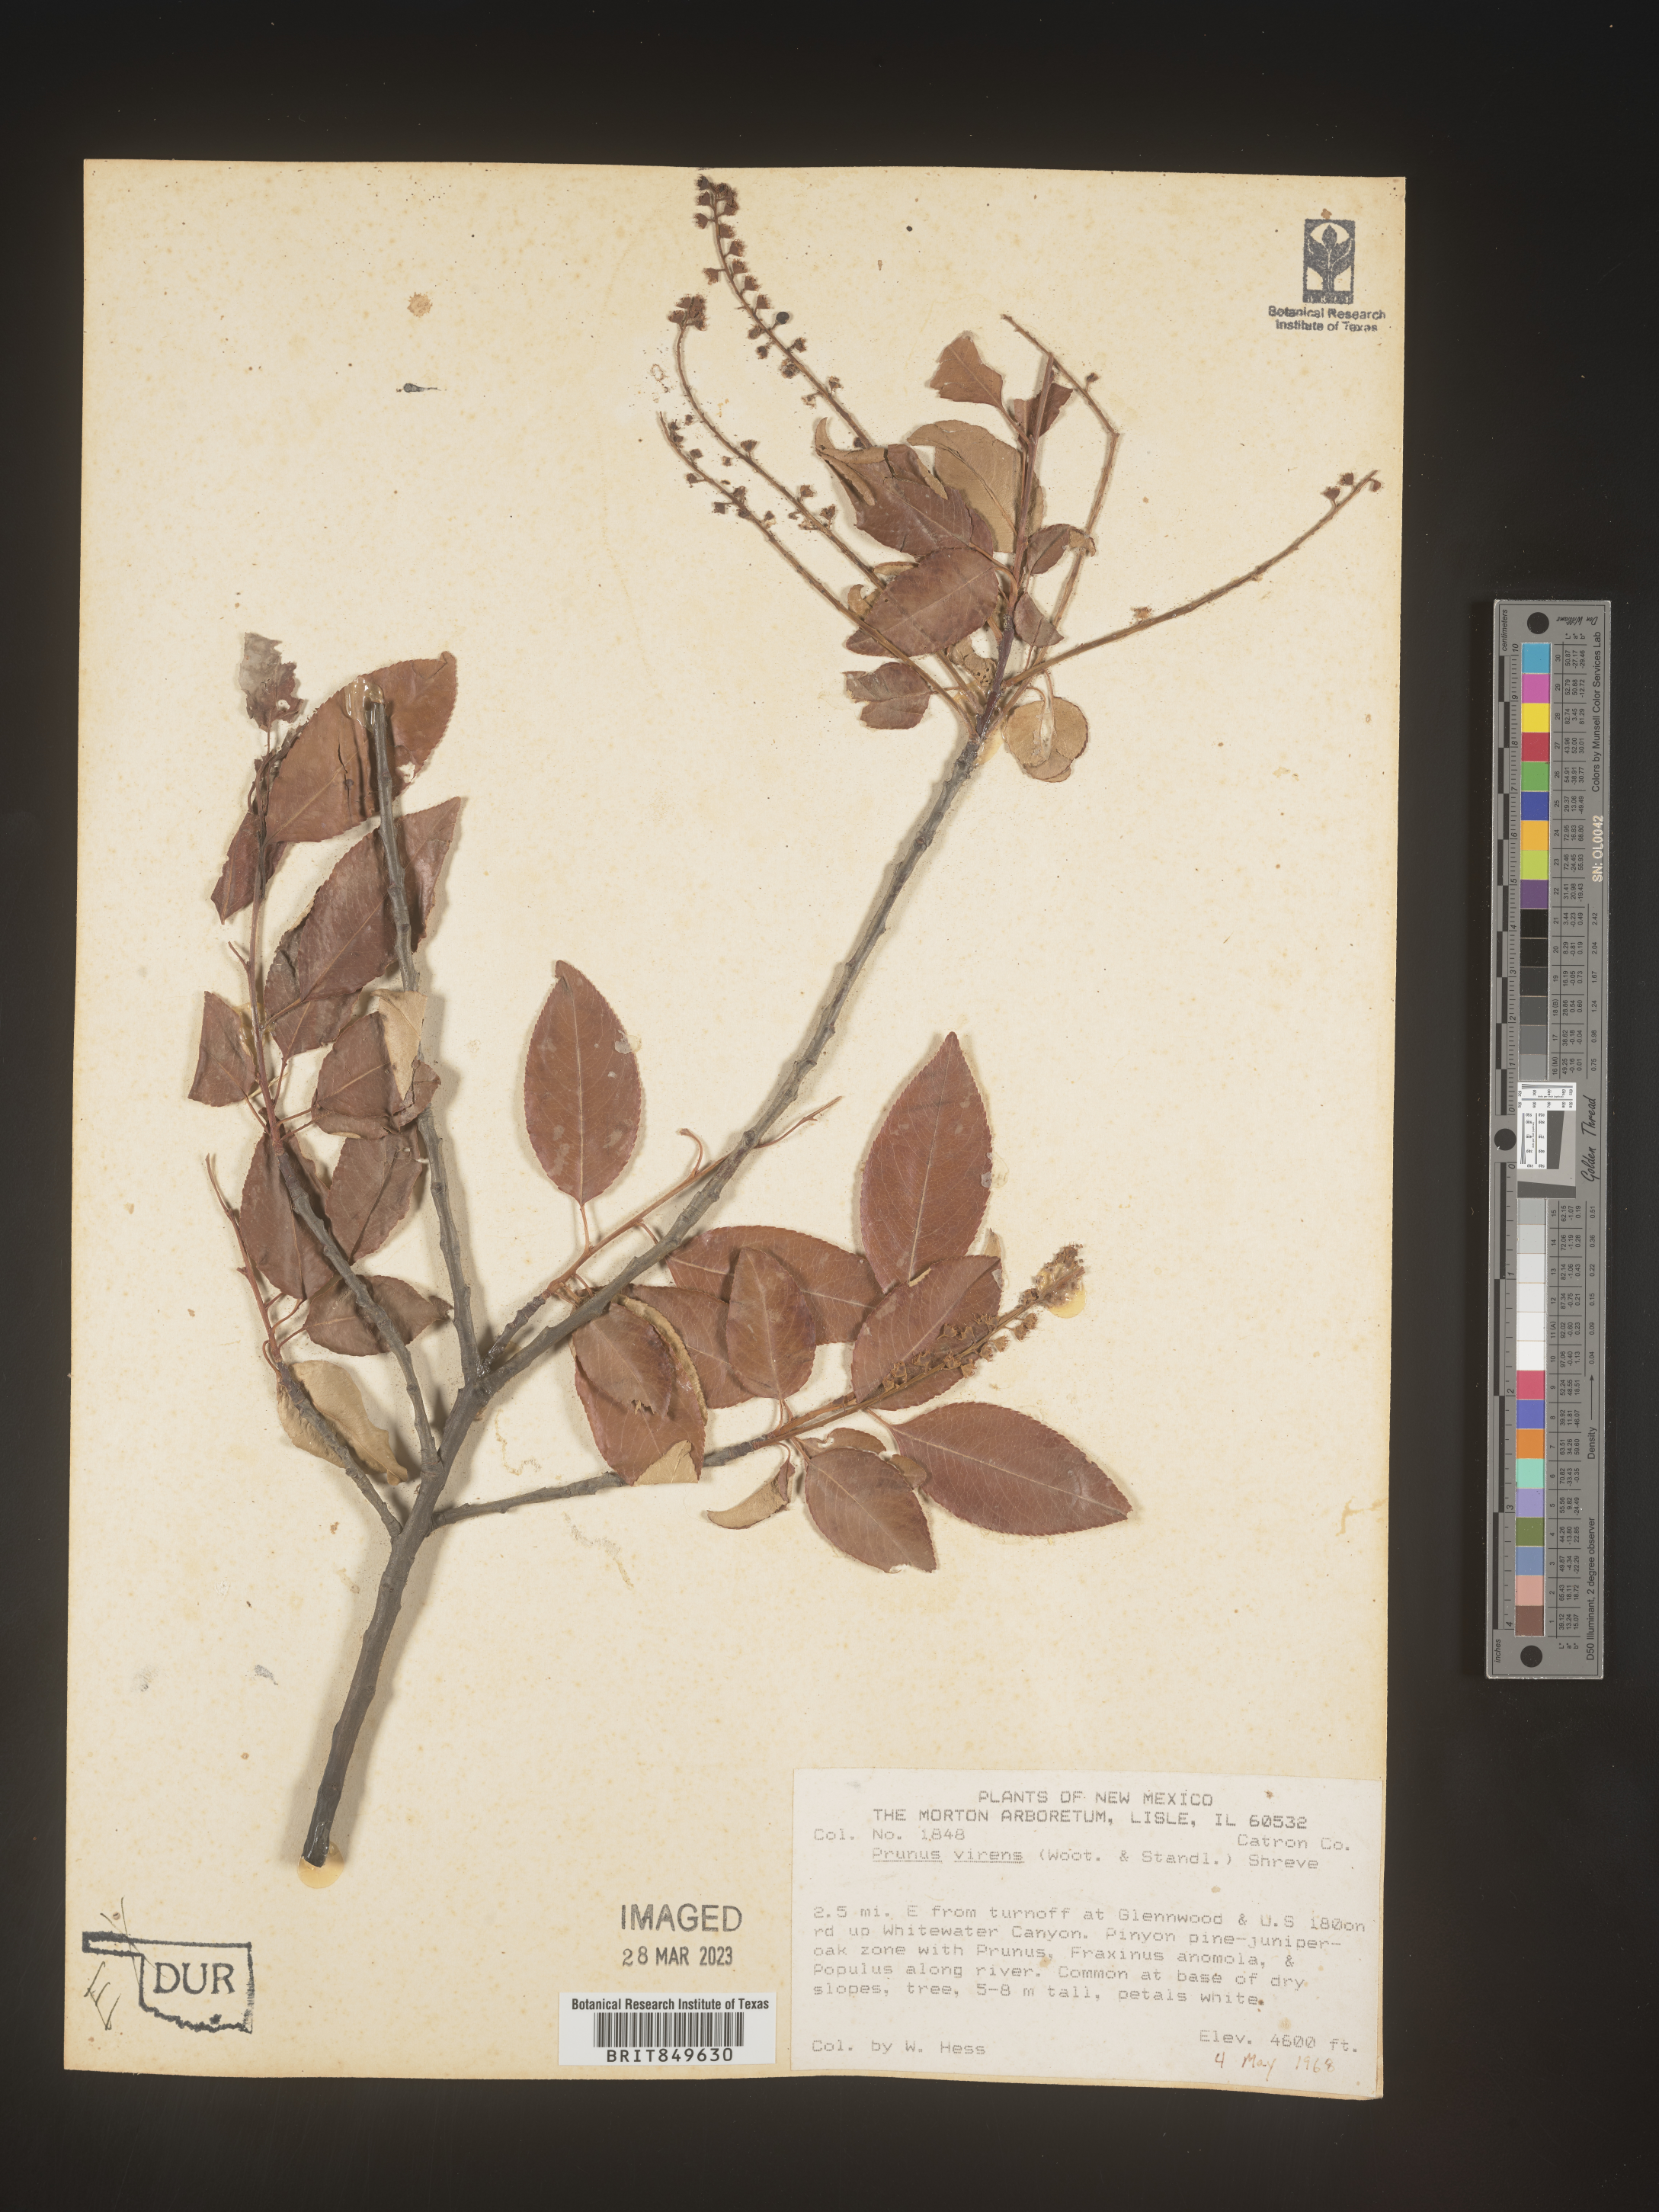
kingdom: Plantae
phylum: Tracheophyta
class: Magnoliopsida
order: Rosales
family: Rosaceae
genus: Prunus
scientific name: Prunus serotina
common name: Black cherry
